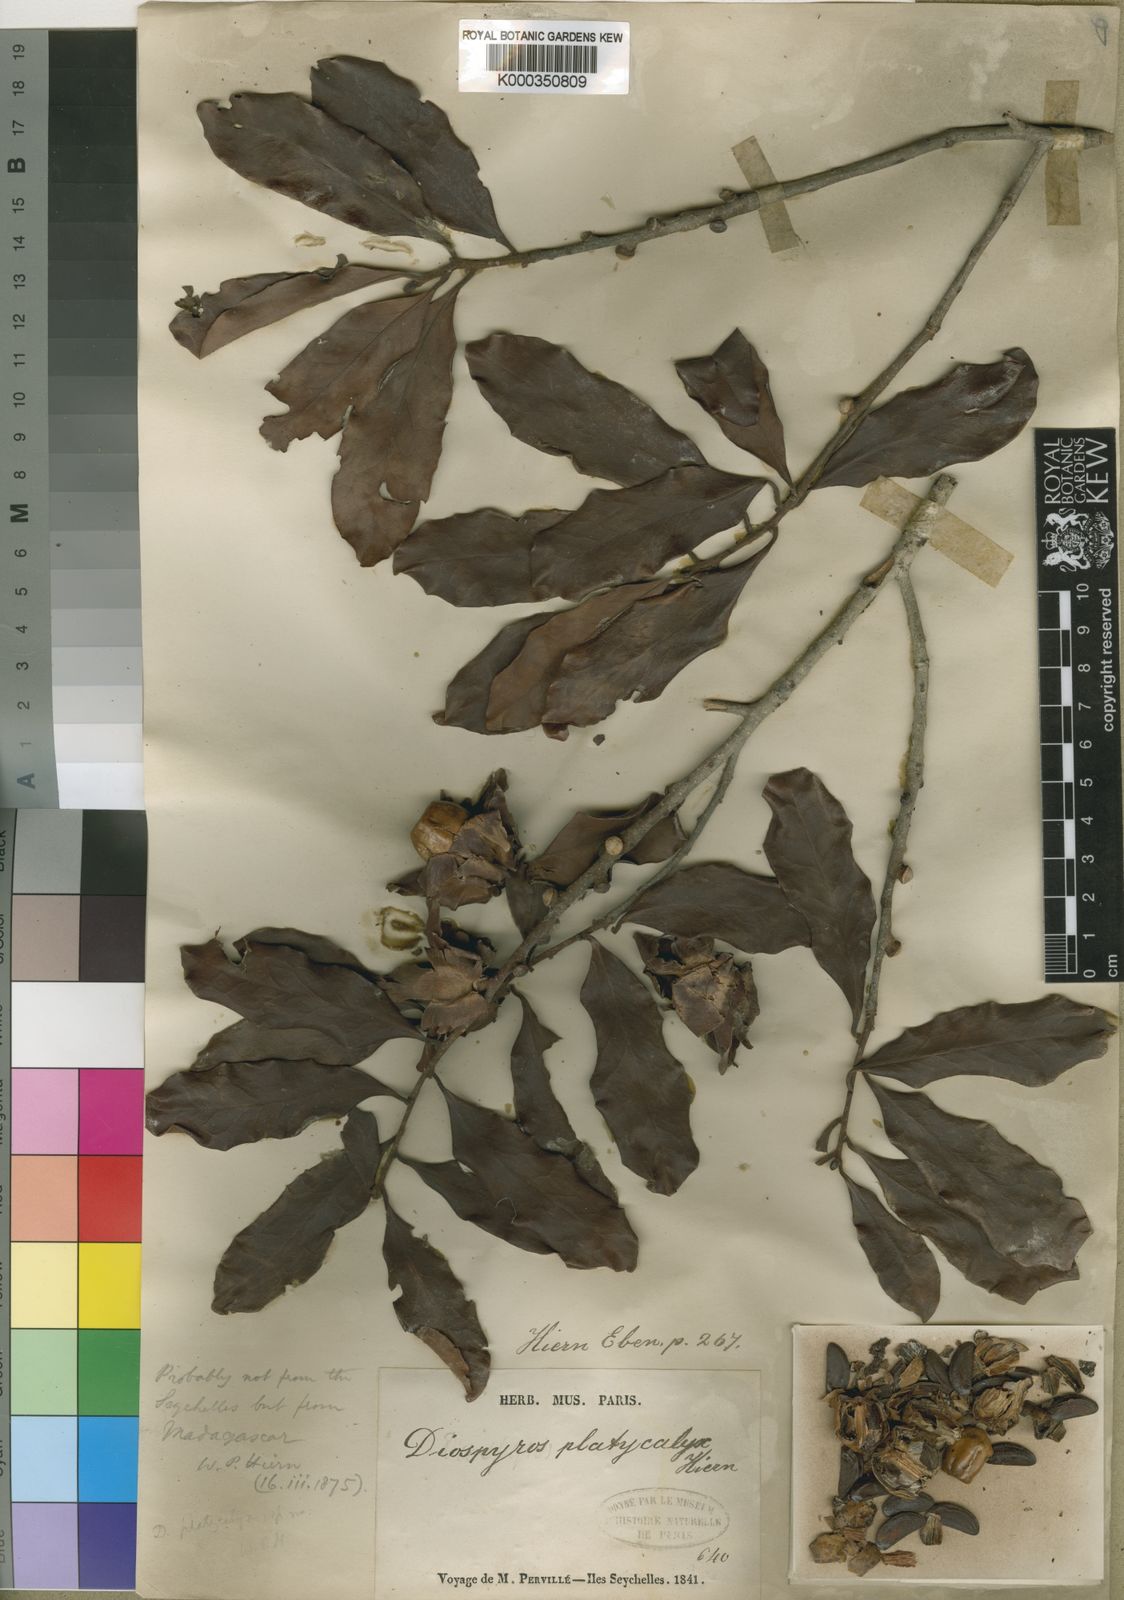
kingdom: Plantae
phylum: Tracheophyta
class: Magnoliopsida
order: Ericales
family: Ebenaceae
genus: Diospyros
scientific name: Diospyros platycalyx
